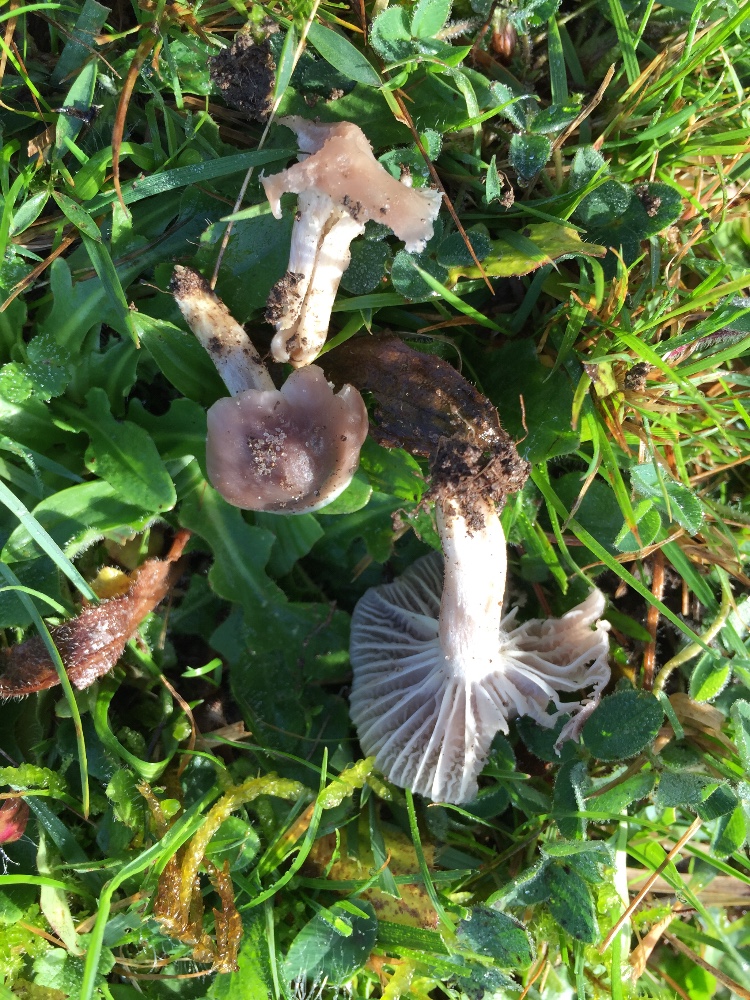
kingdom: Fungi
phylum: Basidiomycota
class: Agaricomycetes
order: Agaricales
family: Hygrophoraceae
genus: Cuphophyllus
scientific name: Cuphophyllus flavipes
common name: gulfodet vokshat
